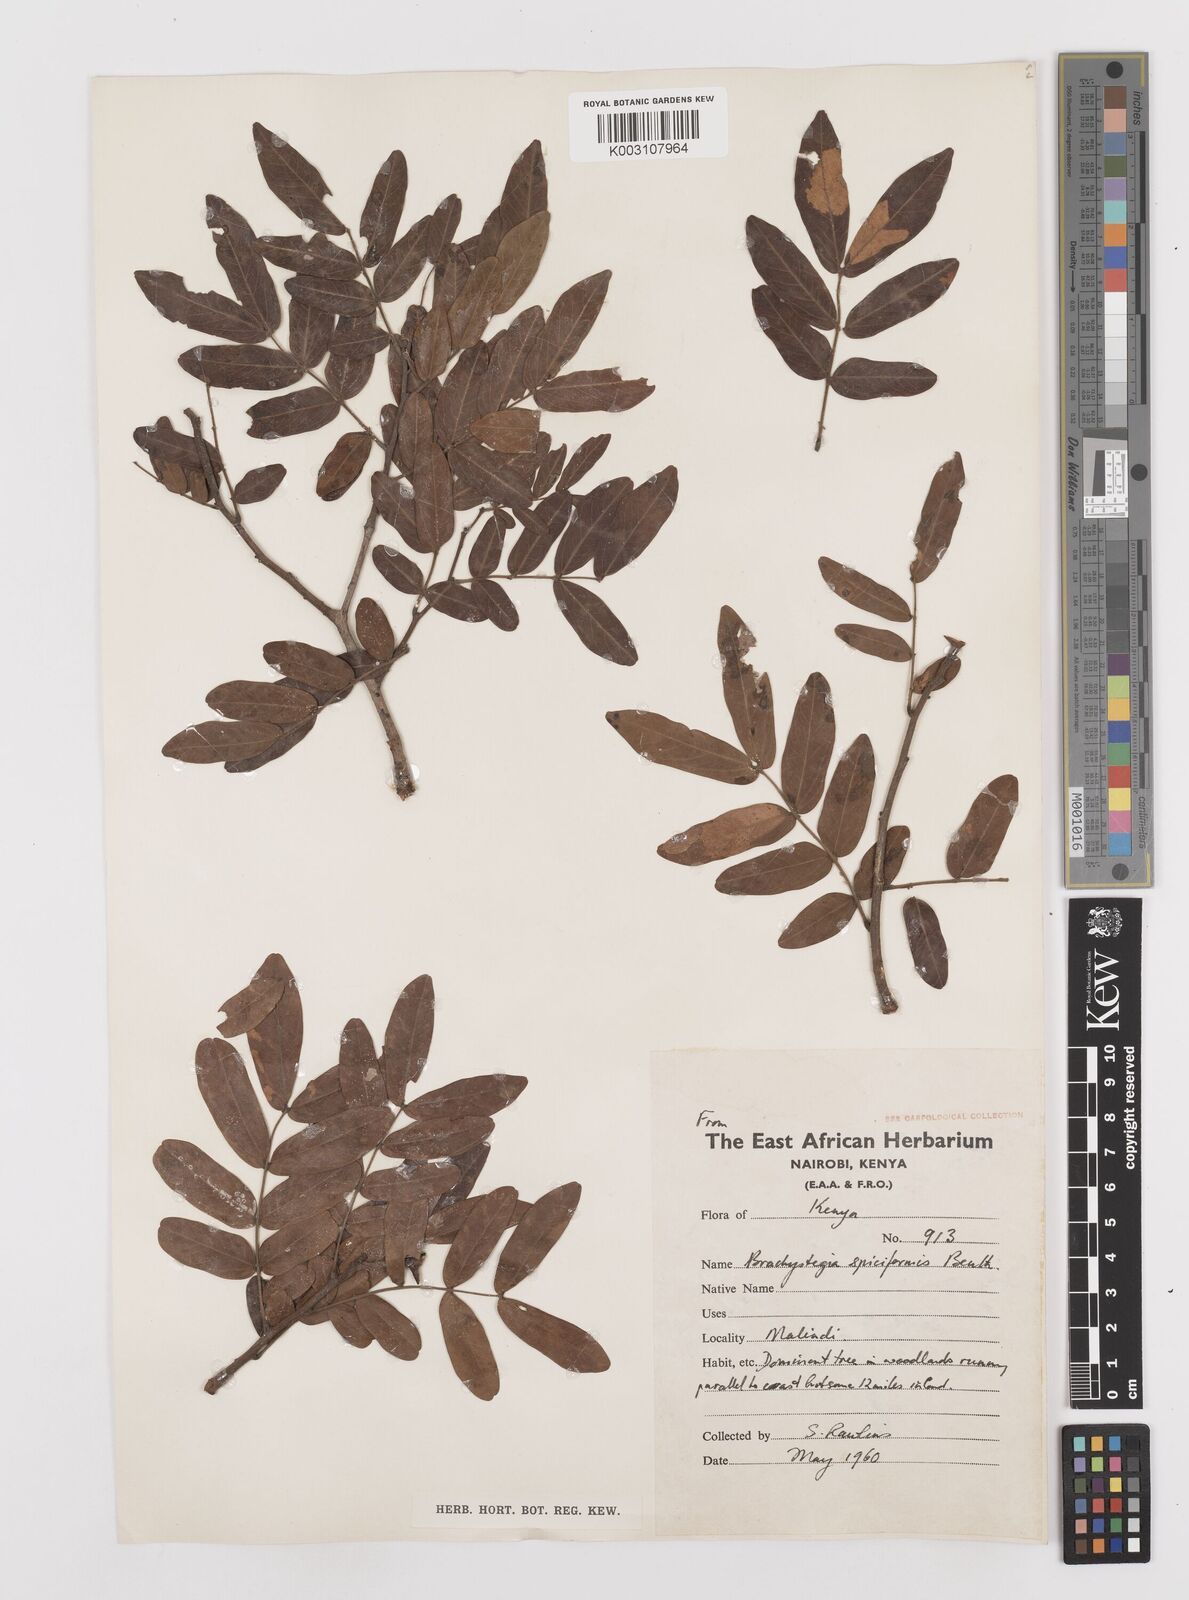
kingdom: Plantae
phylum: Tracheophyta
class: Magnoliopsida
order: Fabales
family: Fabaceae
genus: Brachystegia
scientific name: Brachystegia spiciformis
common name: Zebrawood
